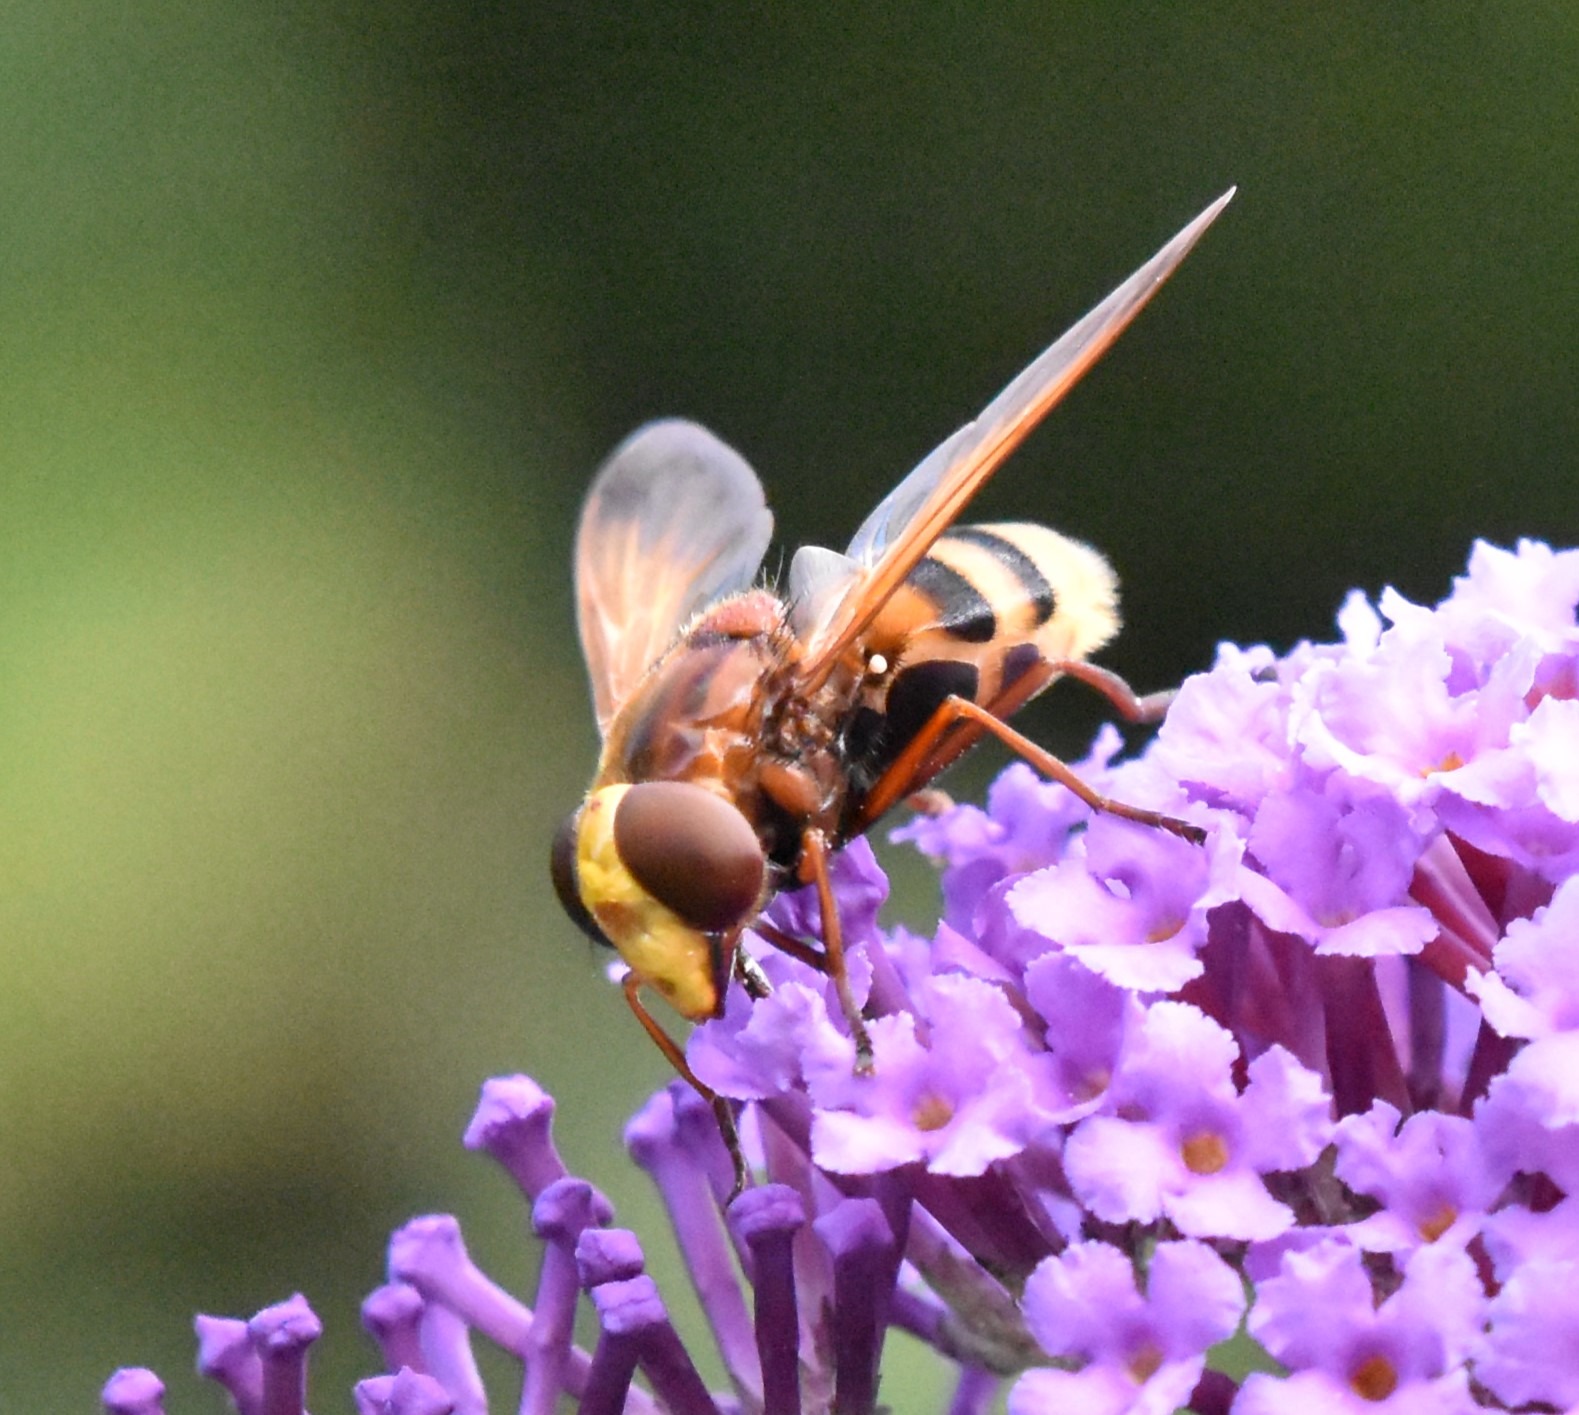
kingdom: Animalia
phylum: Arthropoda
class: Insecta
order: Diptera
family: Syrphidae
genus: Volucella
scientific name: Volucella zonaria
